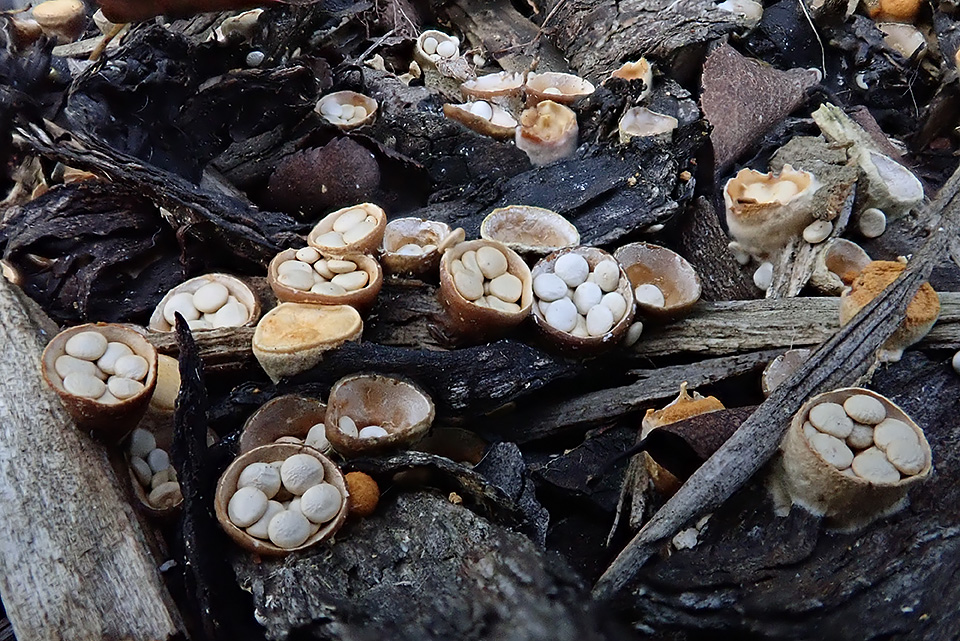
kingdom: Fungi
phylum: Basidiomycota
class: Agaricomycetes
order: Agaricales
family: Nidulariaceae
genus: Crucibulum
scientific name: Crucibulum crucibuliforme
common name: krukkesvamp
